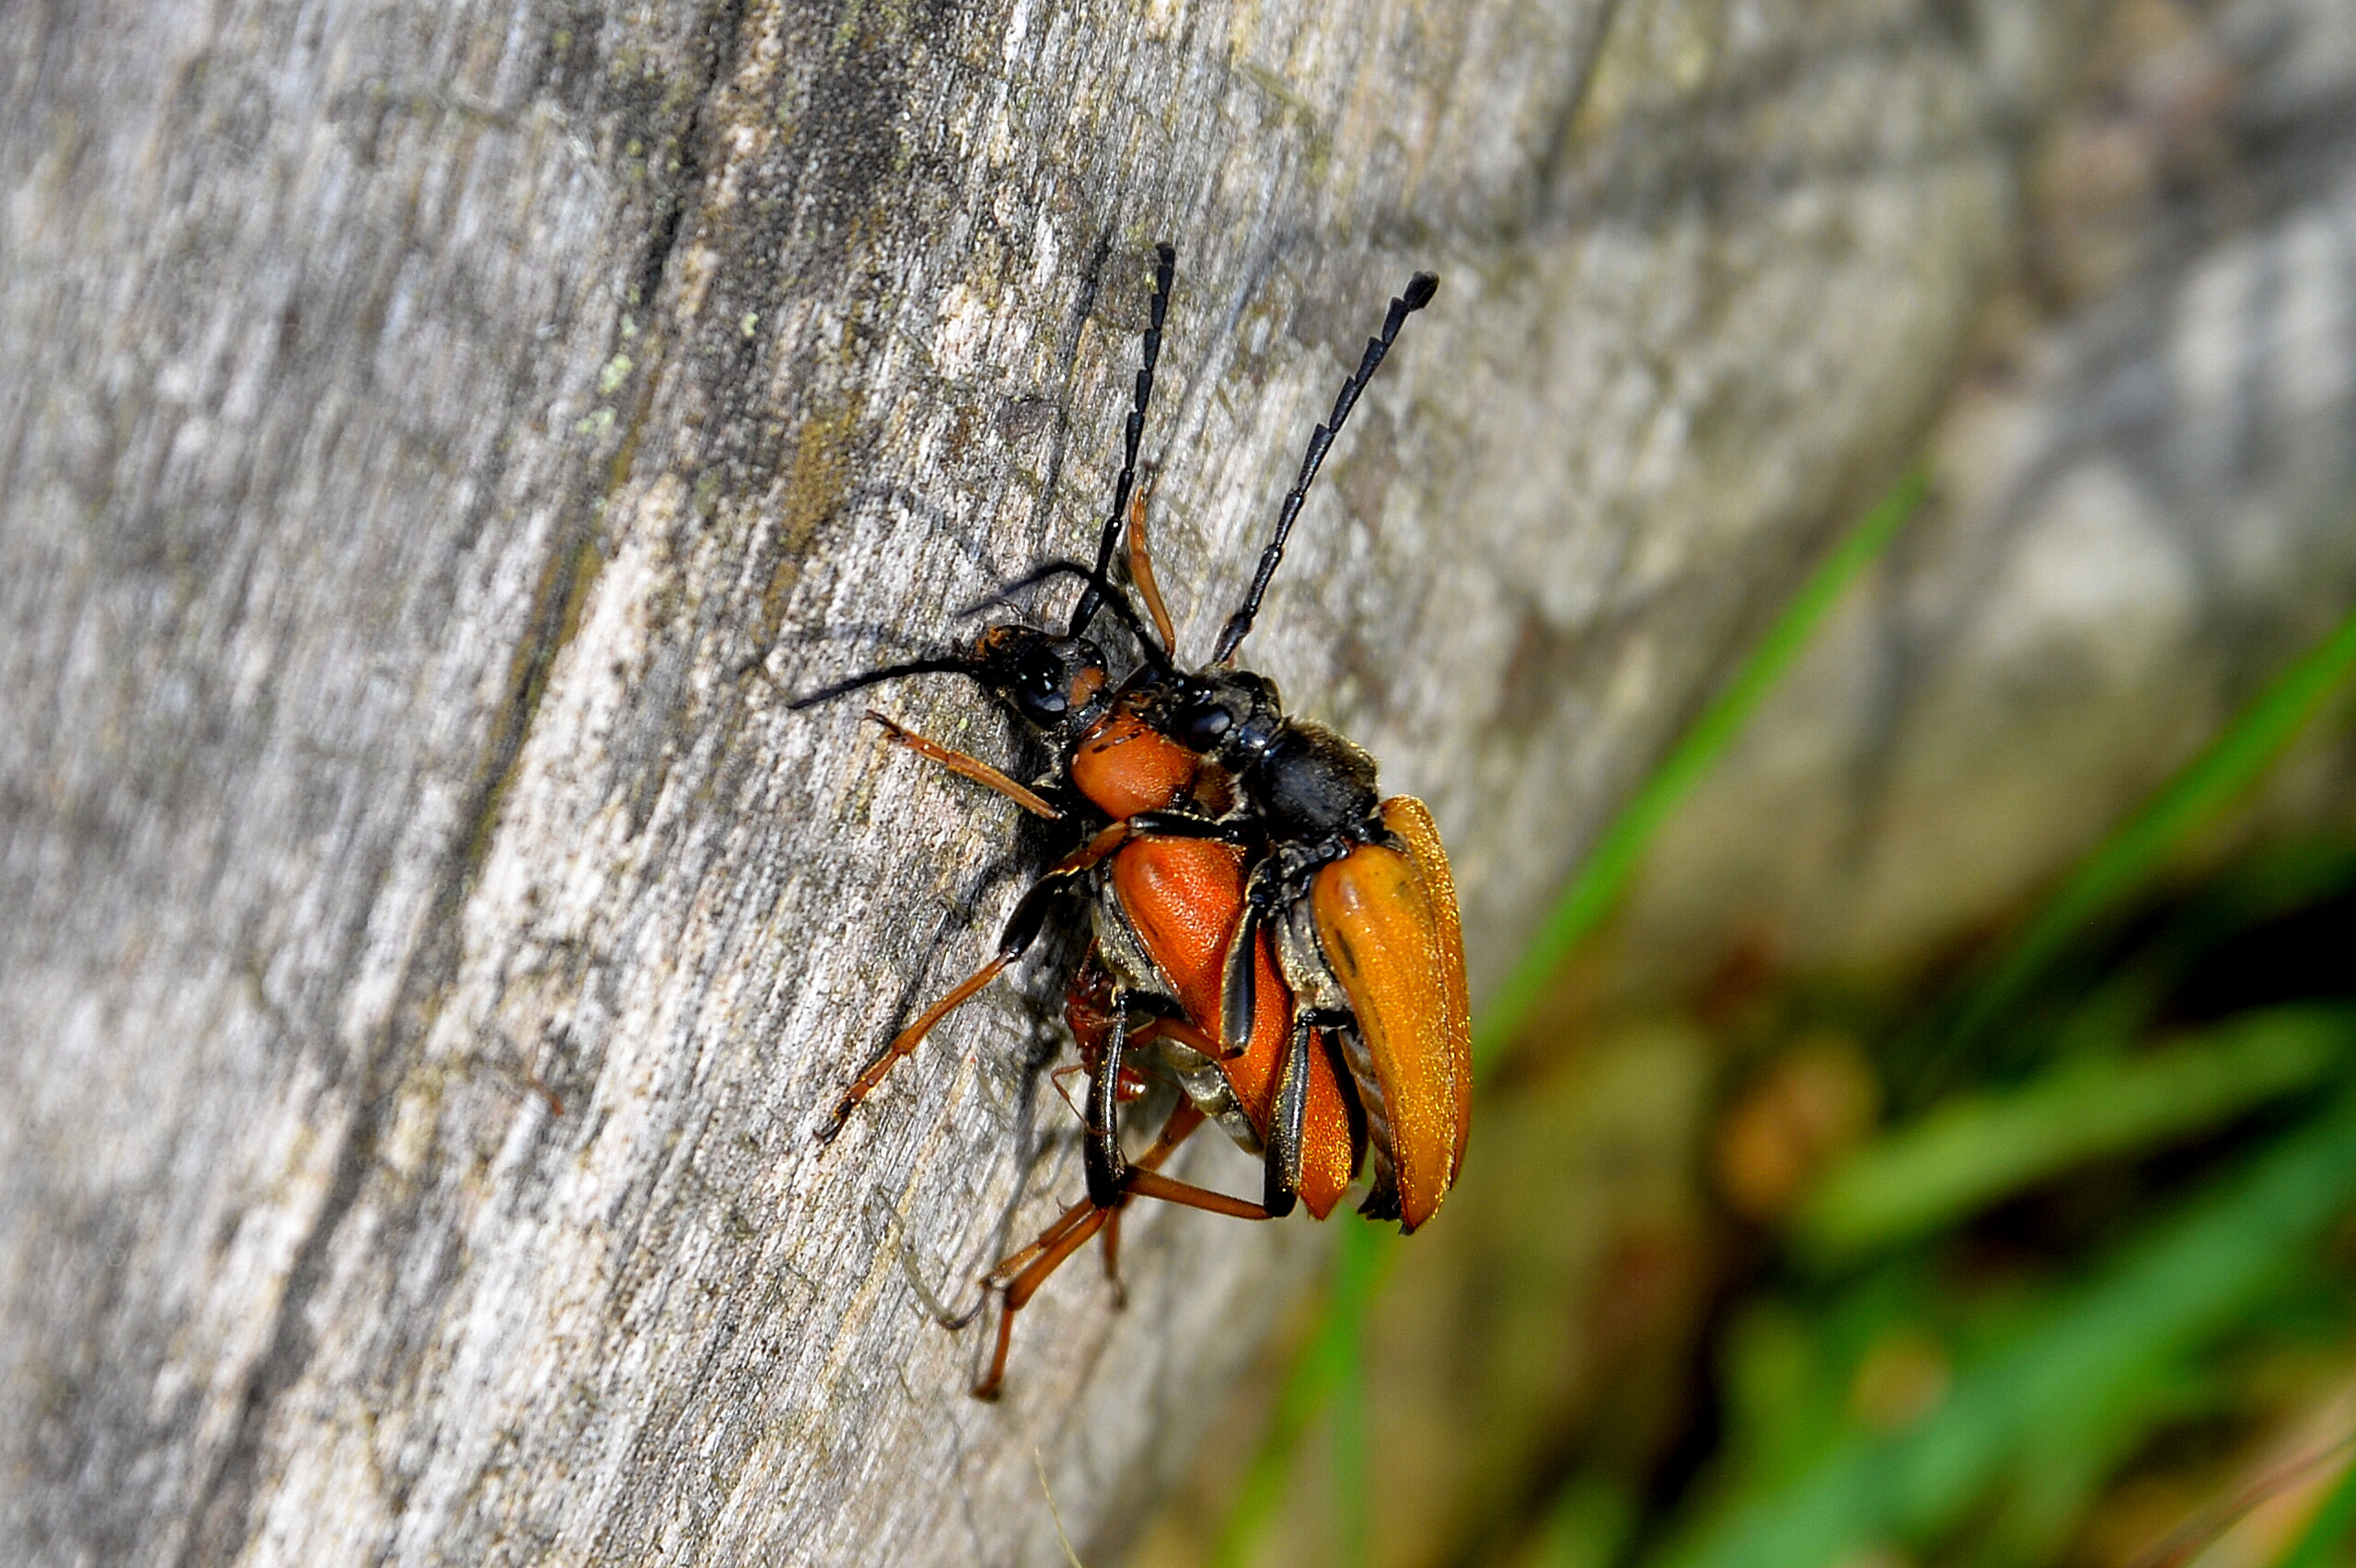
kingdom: Animalia
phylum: Arthropoda
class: Insecta
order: Coleoptera
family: Cerambycidae
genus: Stictoleptura
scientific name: Stictoleptura rubra
